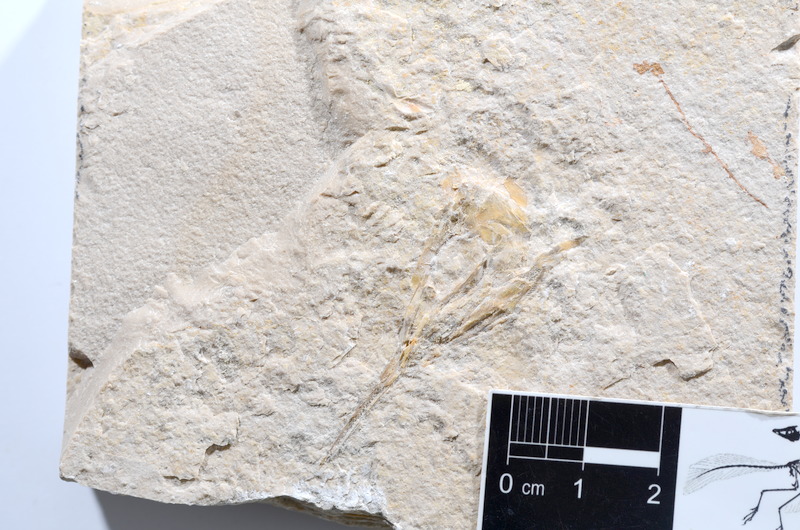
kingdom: Animalia
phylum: Chordata
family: Aspidorhynchidae
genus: Aspidorhynchus
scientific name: Aspidorhynchus acutirostris
